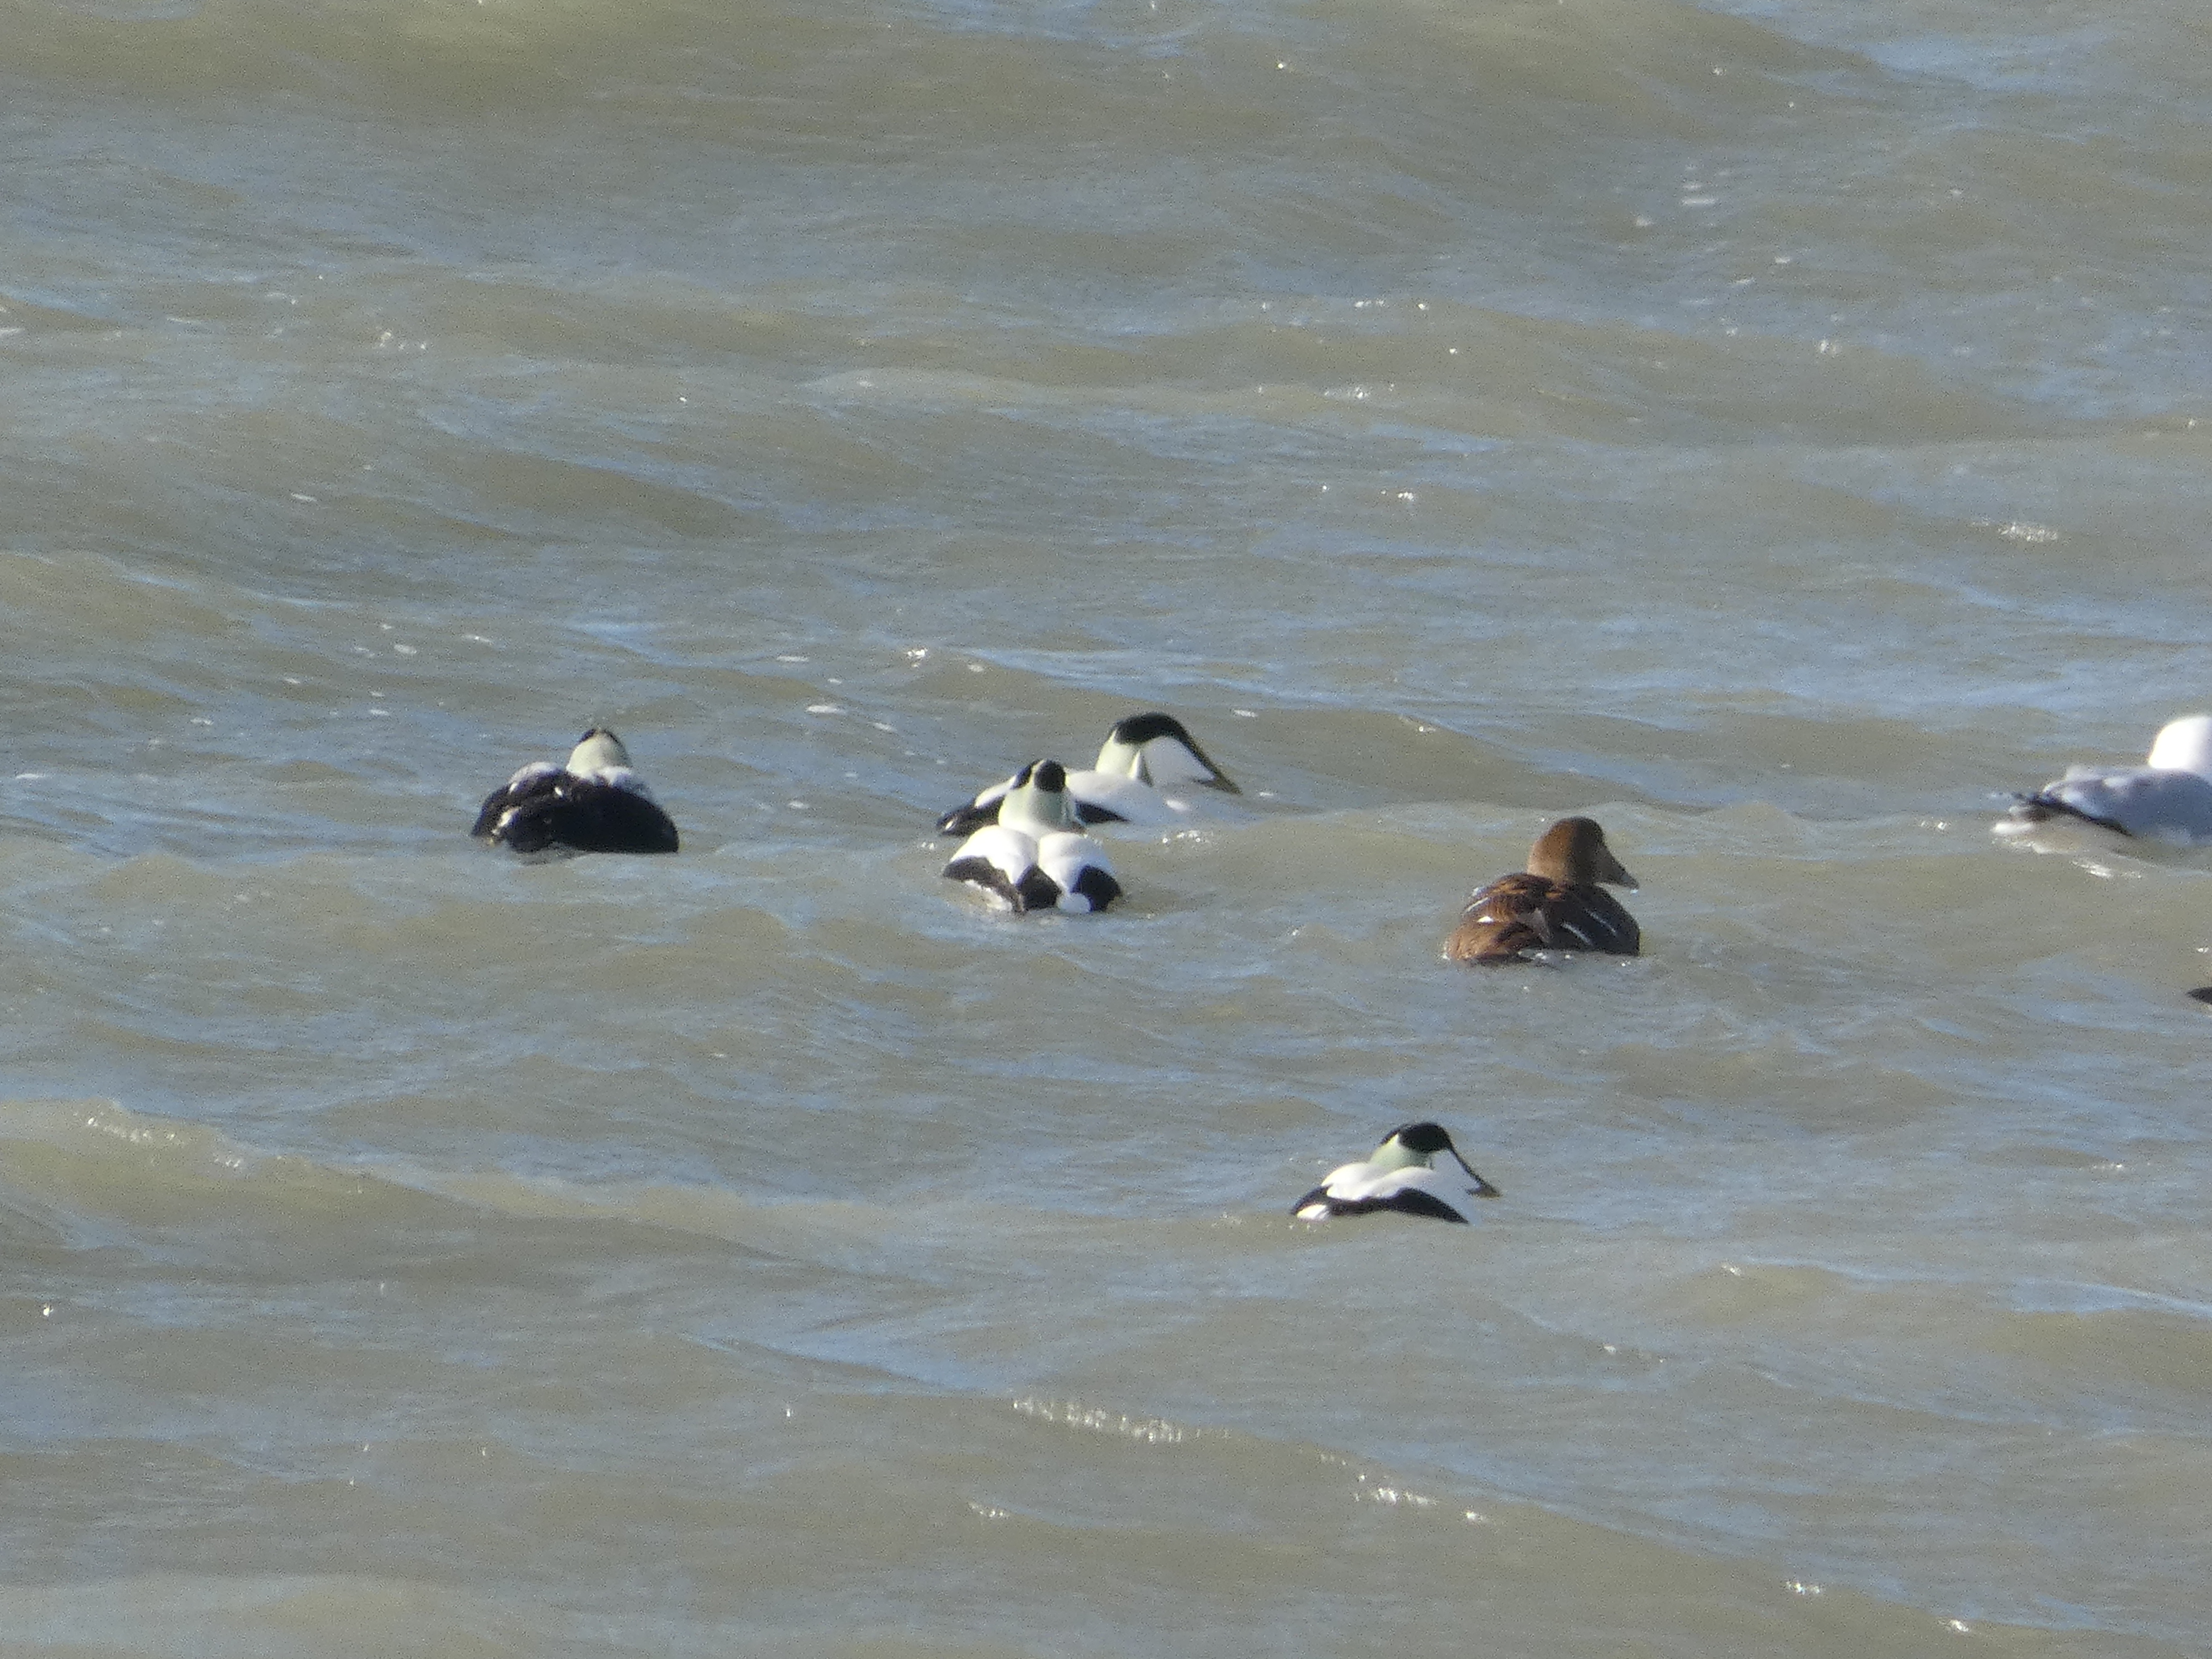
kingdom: Animalia
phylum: Chordata
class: Aves
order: Anseriformes
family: Anatidae
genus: Somateria
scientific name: Somateria mollissima
